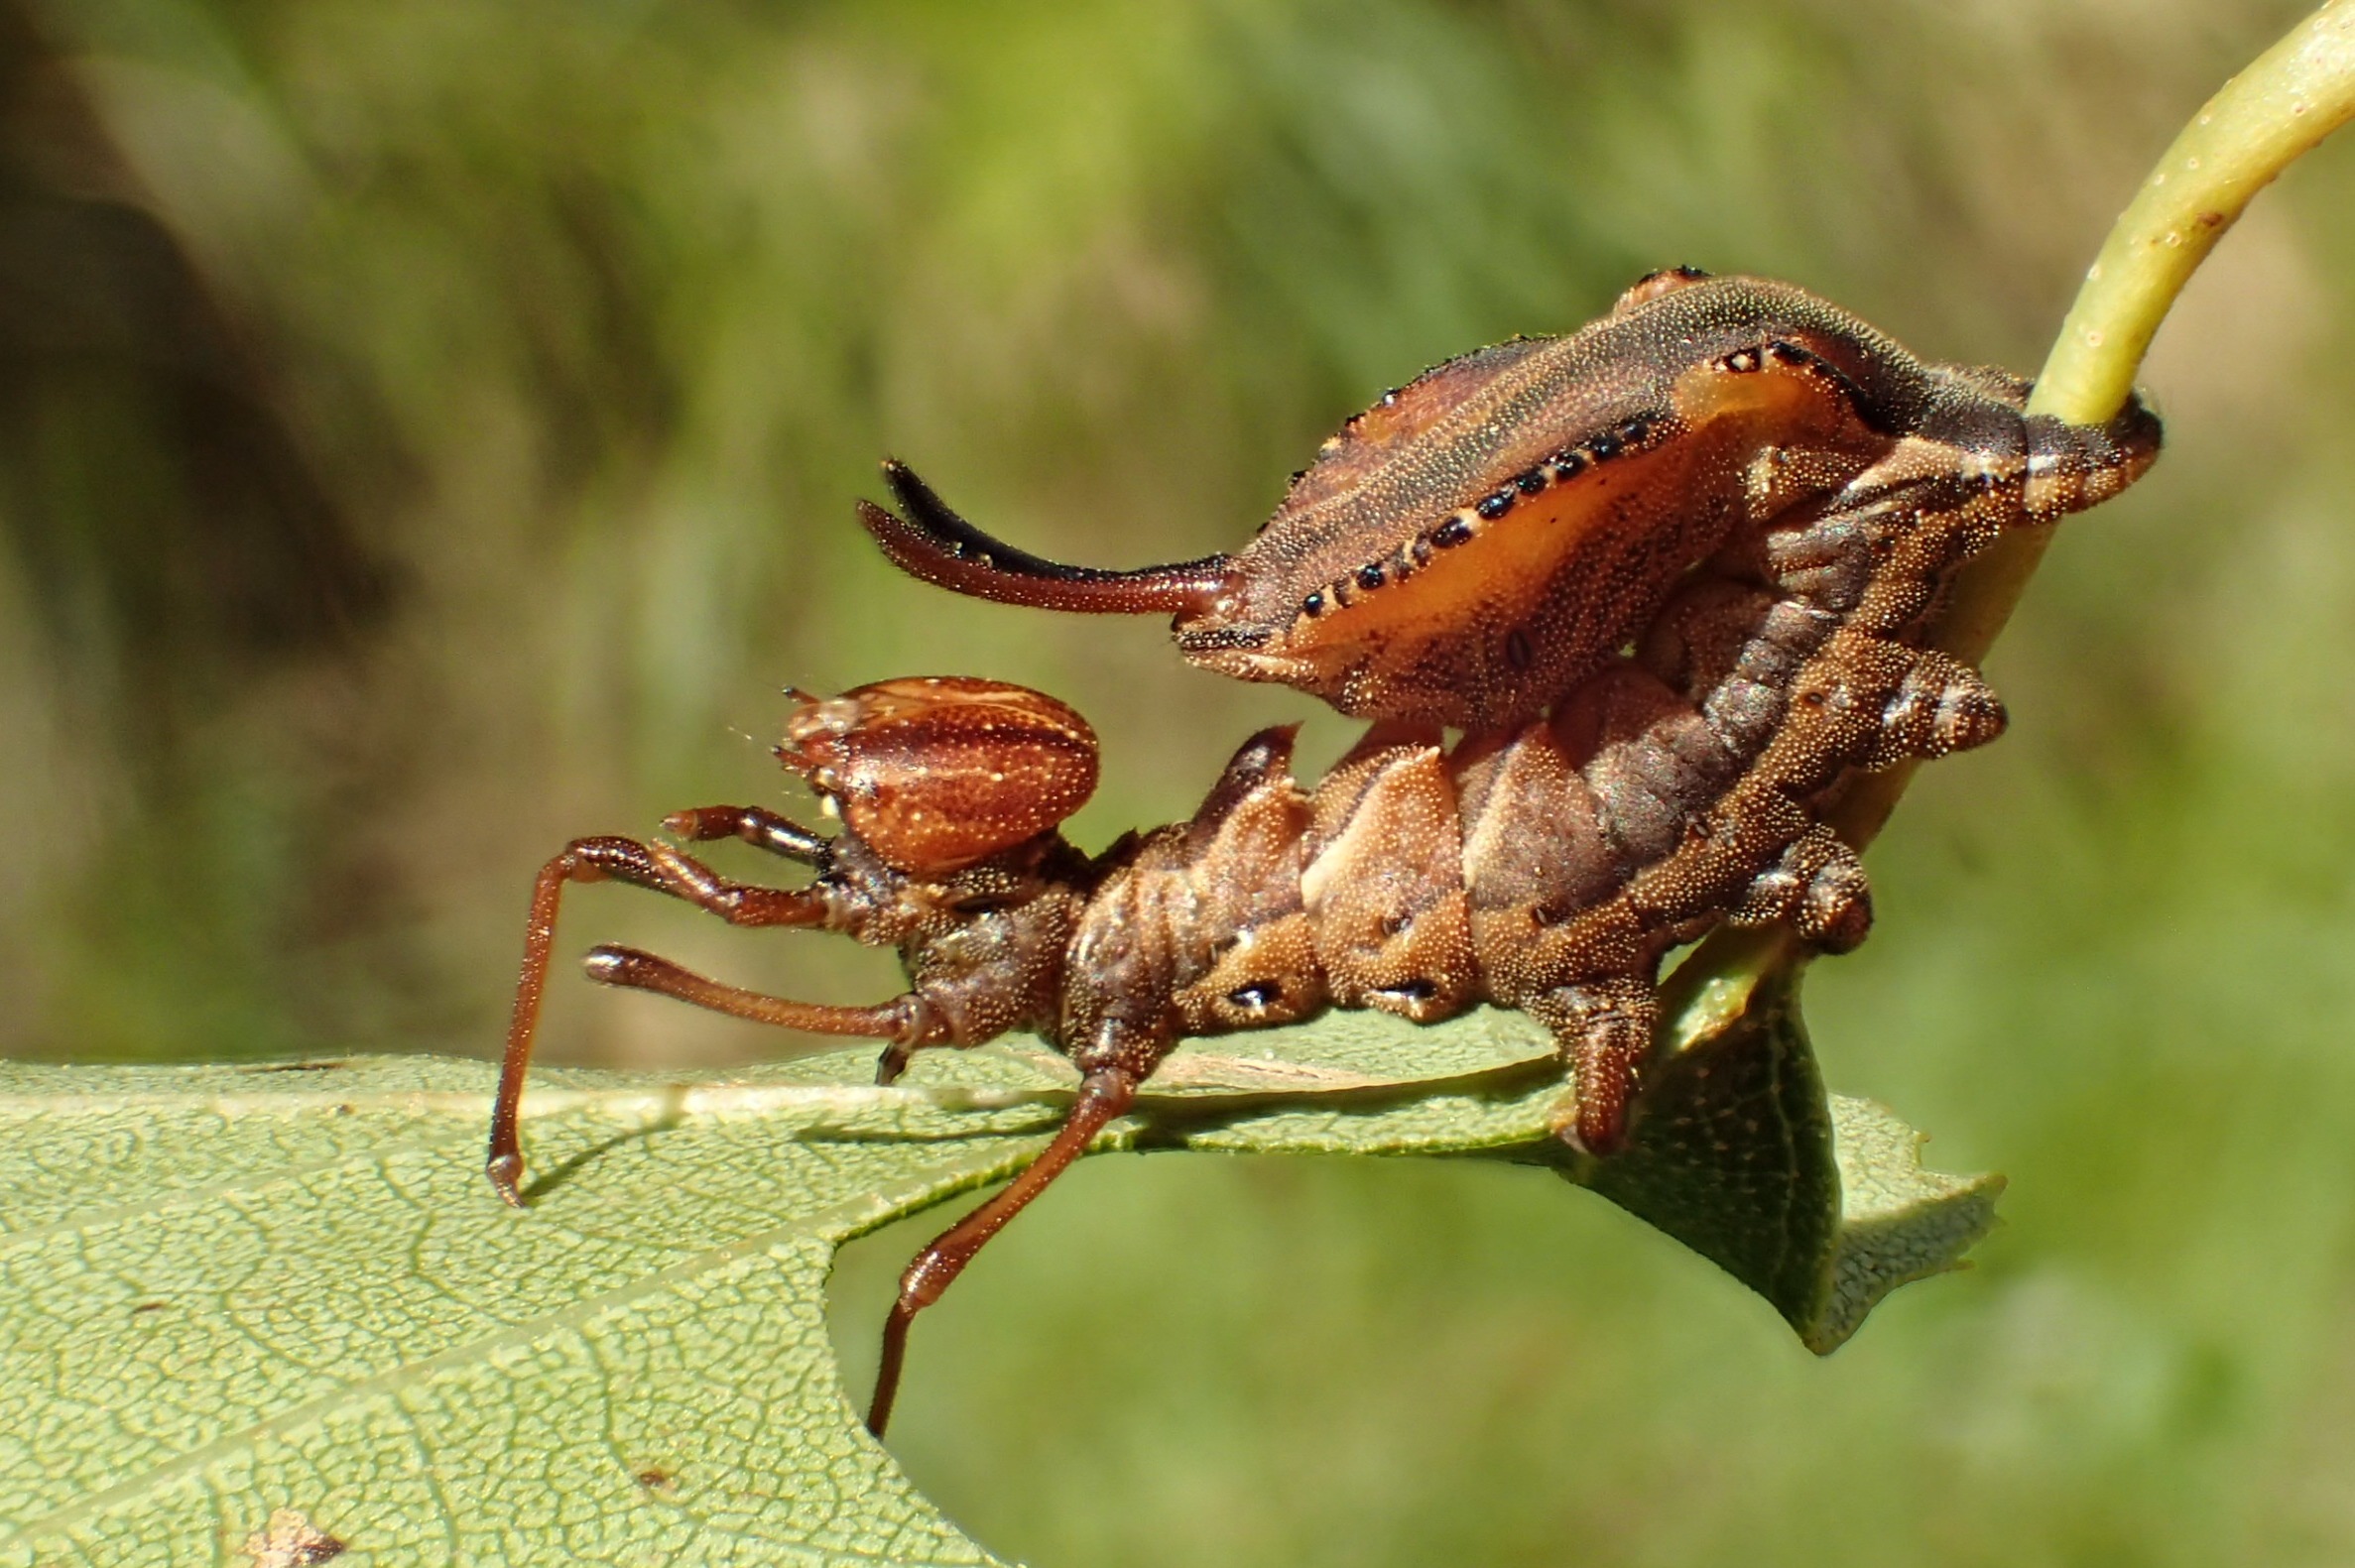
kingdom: Animalia
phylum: Arthropoda
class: Insecta
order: Lepidoptera
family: Notodontidae
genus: Stauropus
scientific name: Stauropus fagi
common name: Bøgespinder
